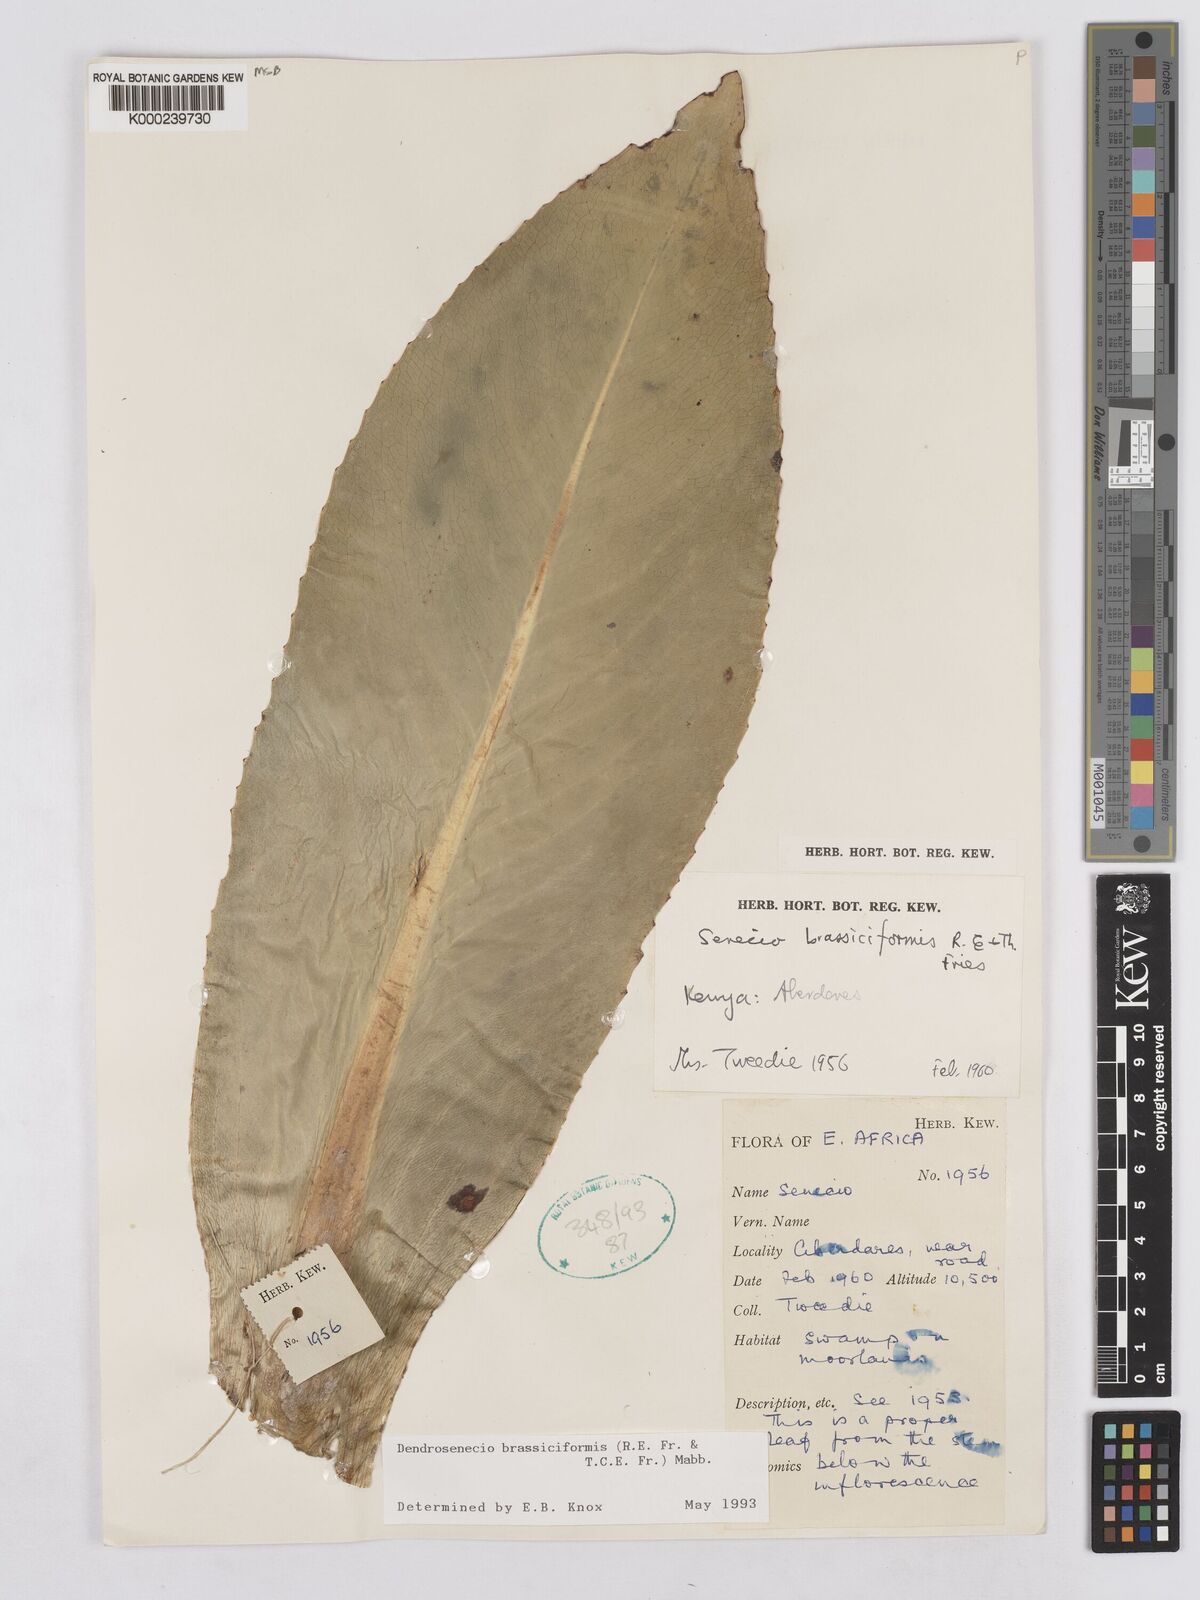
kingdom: Plantae
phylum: Tracheophyta
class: Magnoliopsida
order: Asterales
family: Asteraceae
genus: Dendrosenecio
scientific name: Dendrosenecio brassiciformis
